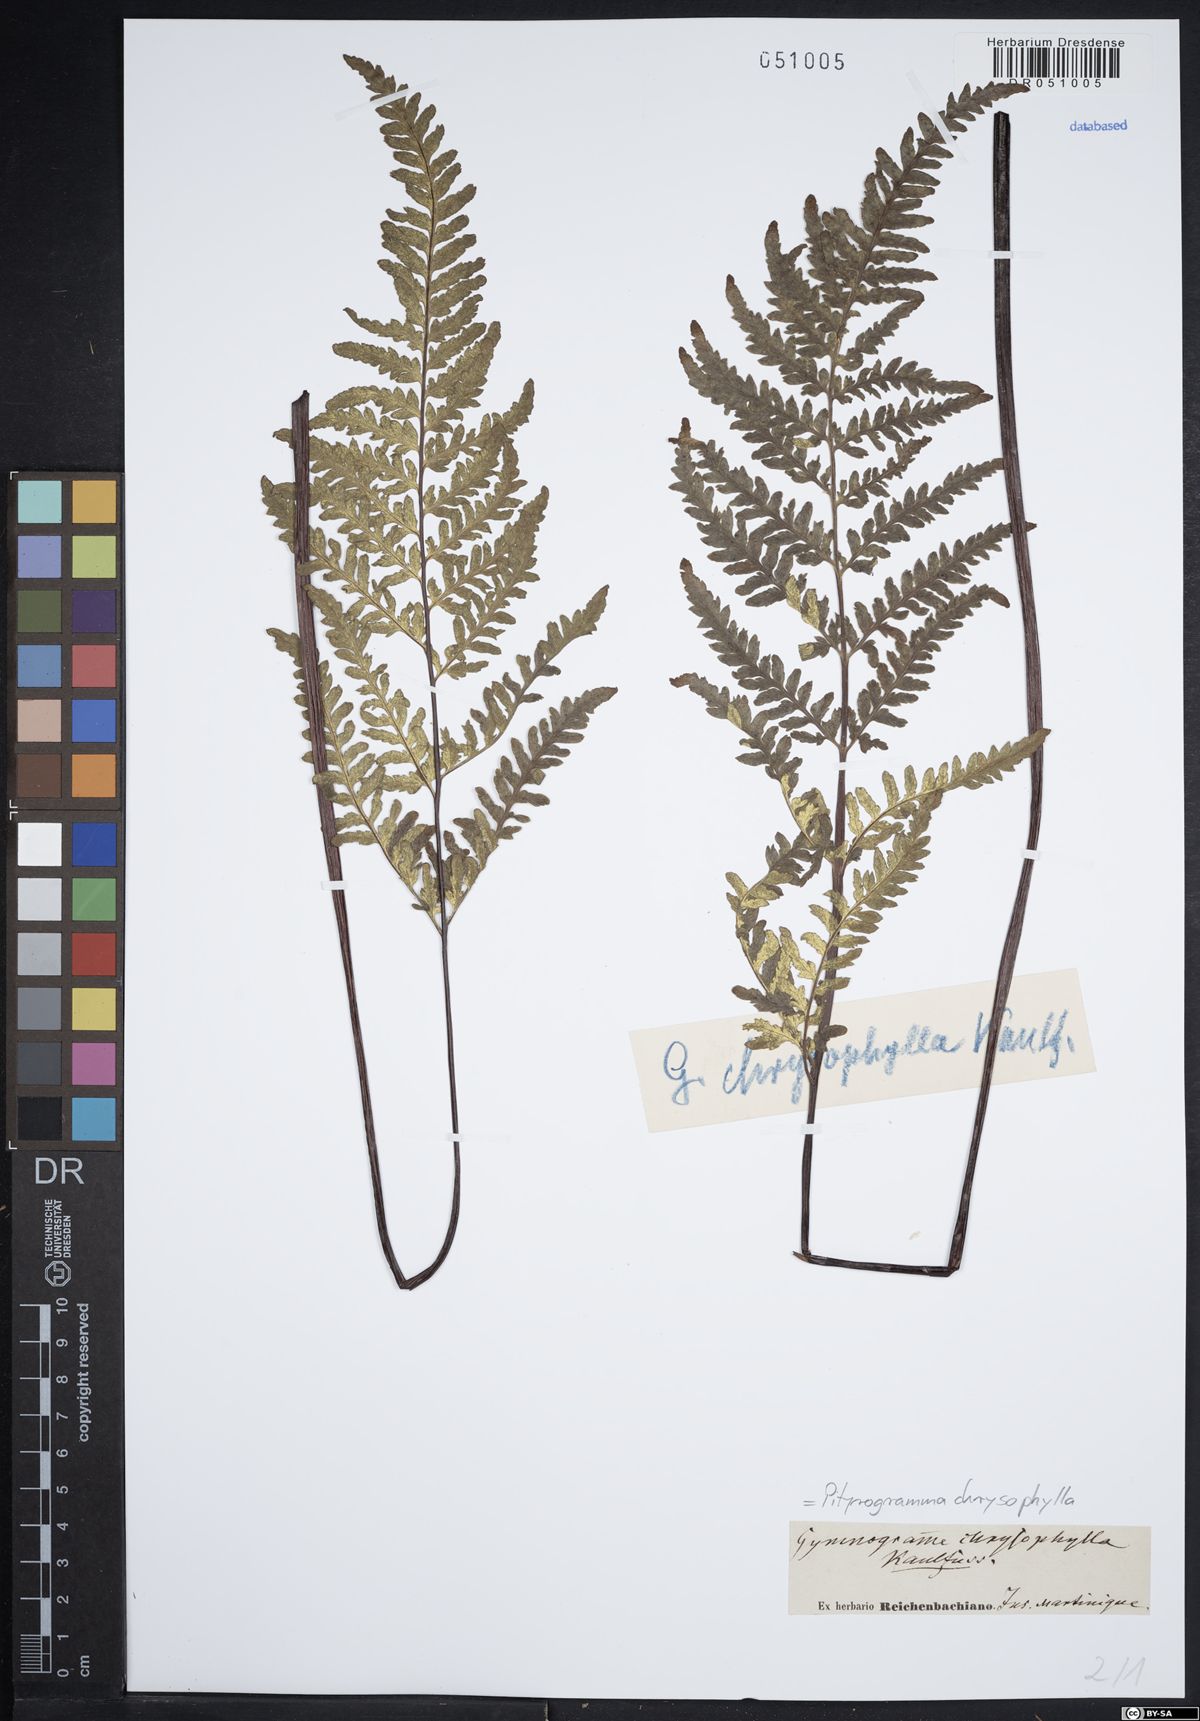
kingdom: Plantae
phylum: Tracheophyta
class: Polypodiopsida
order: Polypodiales
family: Pteridaceae
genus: Pityrogramma
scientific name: Pityrogramma chrysophylla
